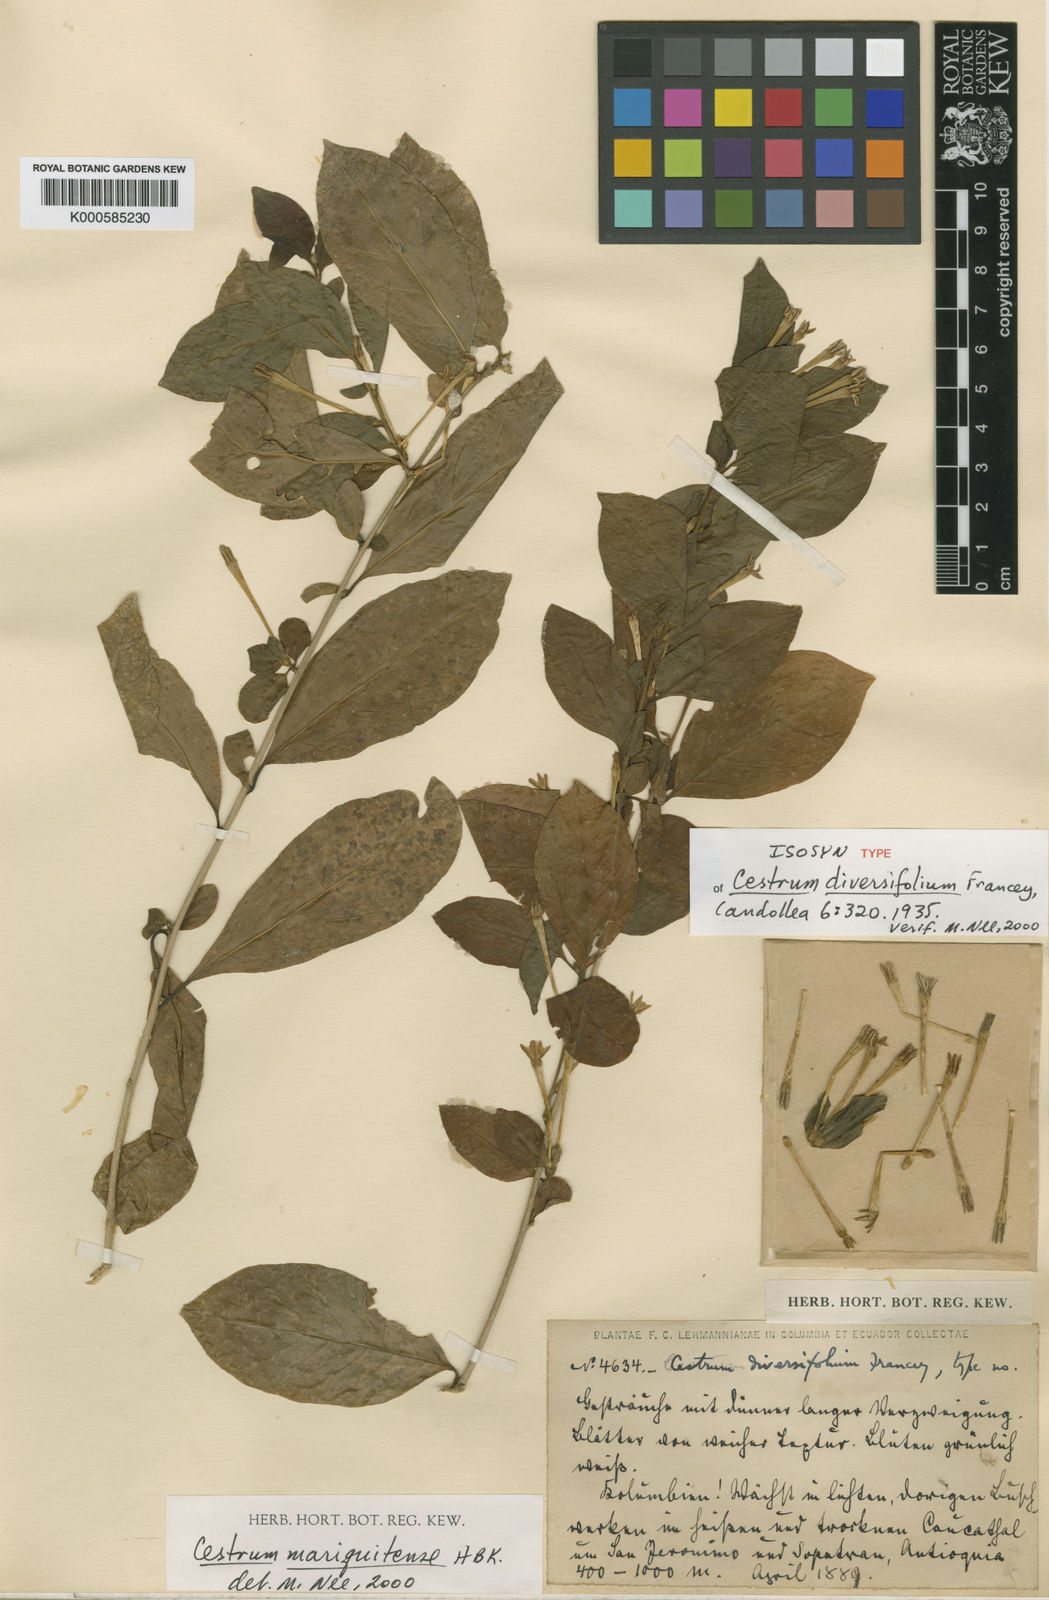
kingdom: Plantae
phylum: Tracheophyta
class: Magnoliopsida
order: Solanales
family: Solanaceae
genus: Cestrum
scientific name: Cestrum mariquitense
